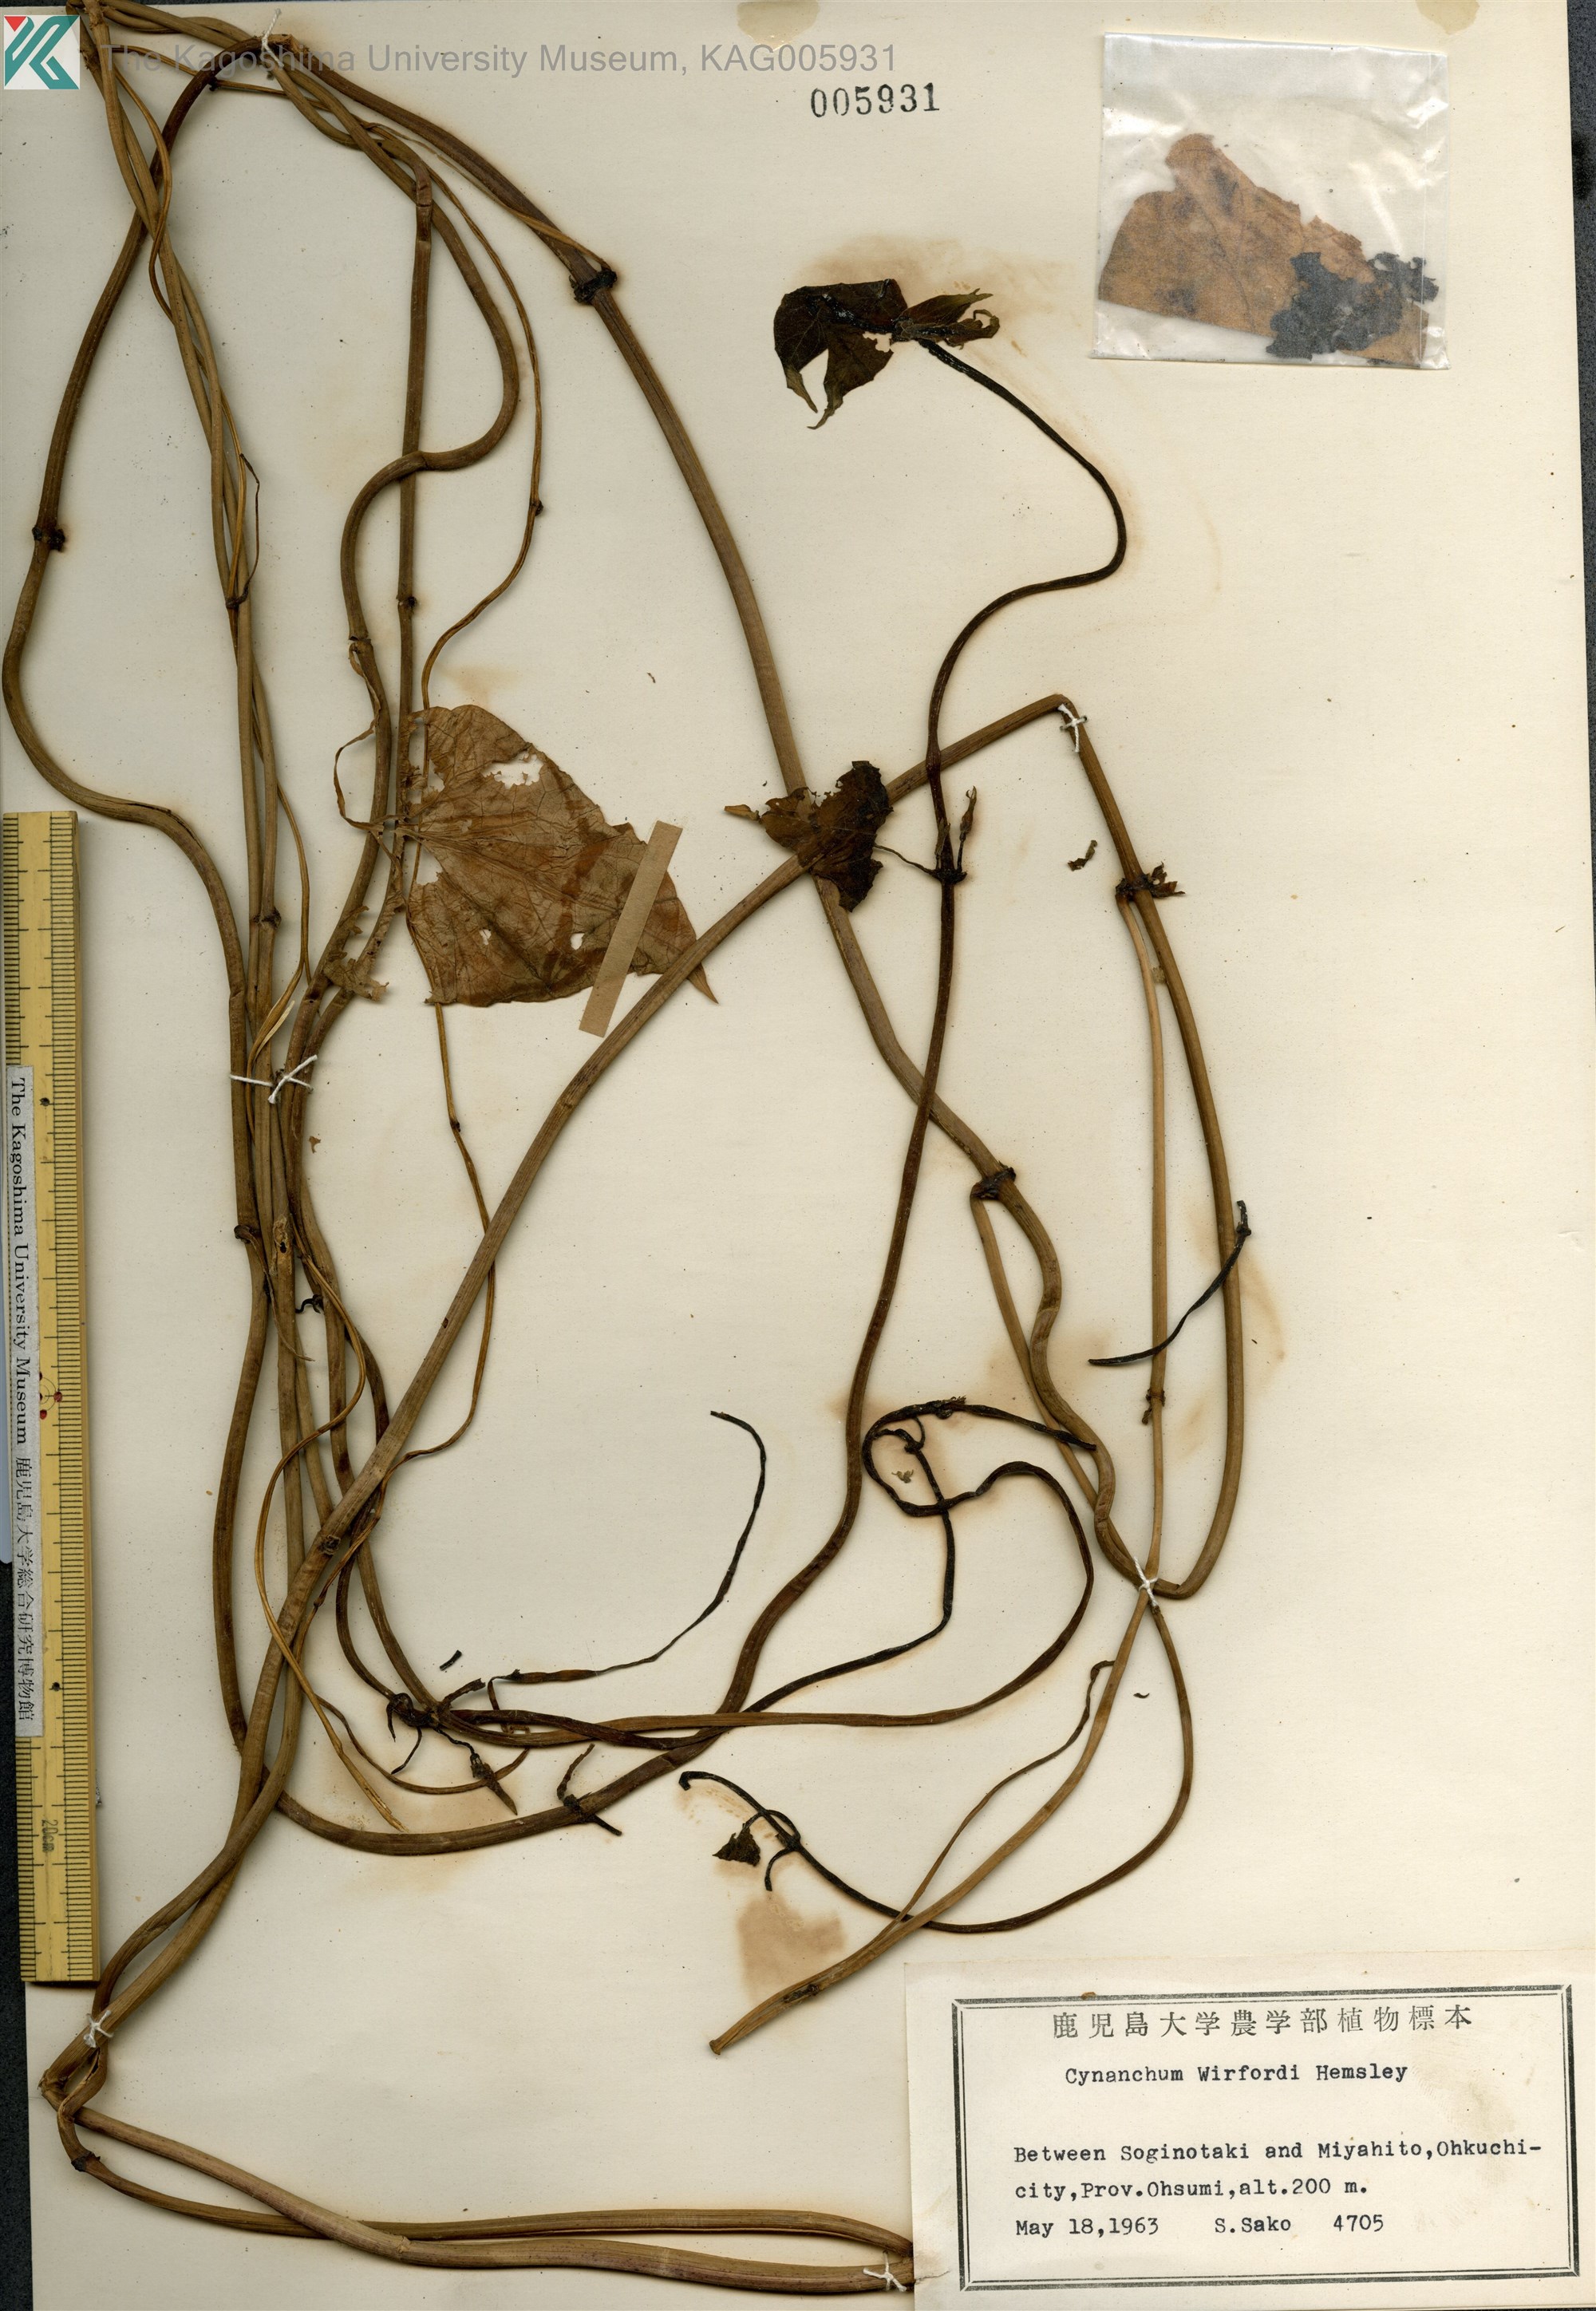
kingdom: Plantae
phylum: Tracheophyta
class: Magnoliopsida
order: Gentianales
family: Apocynaceae
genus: Orthosia
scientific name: Orthosia virgata
